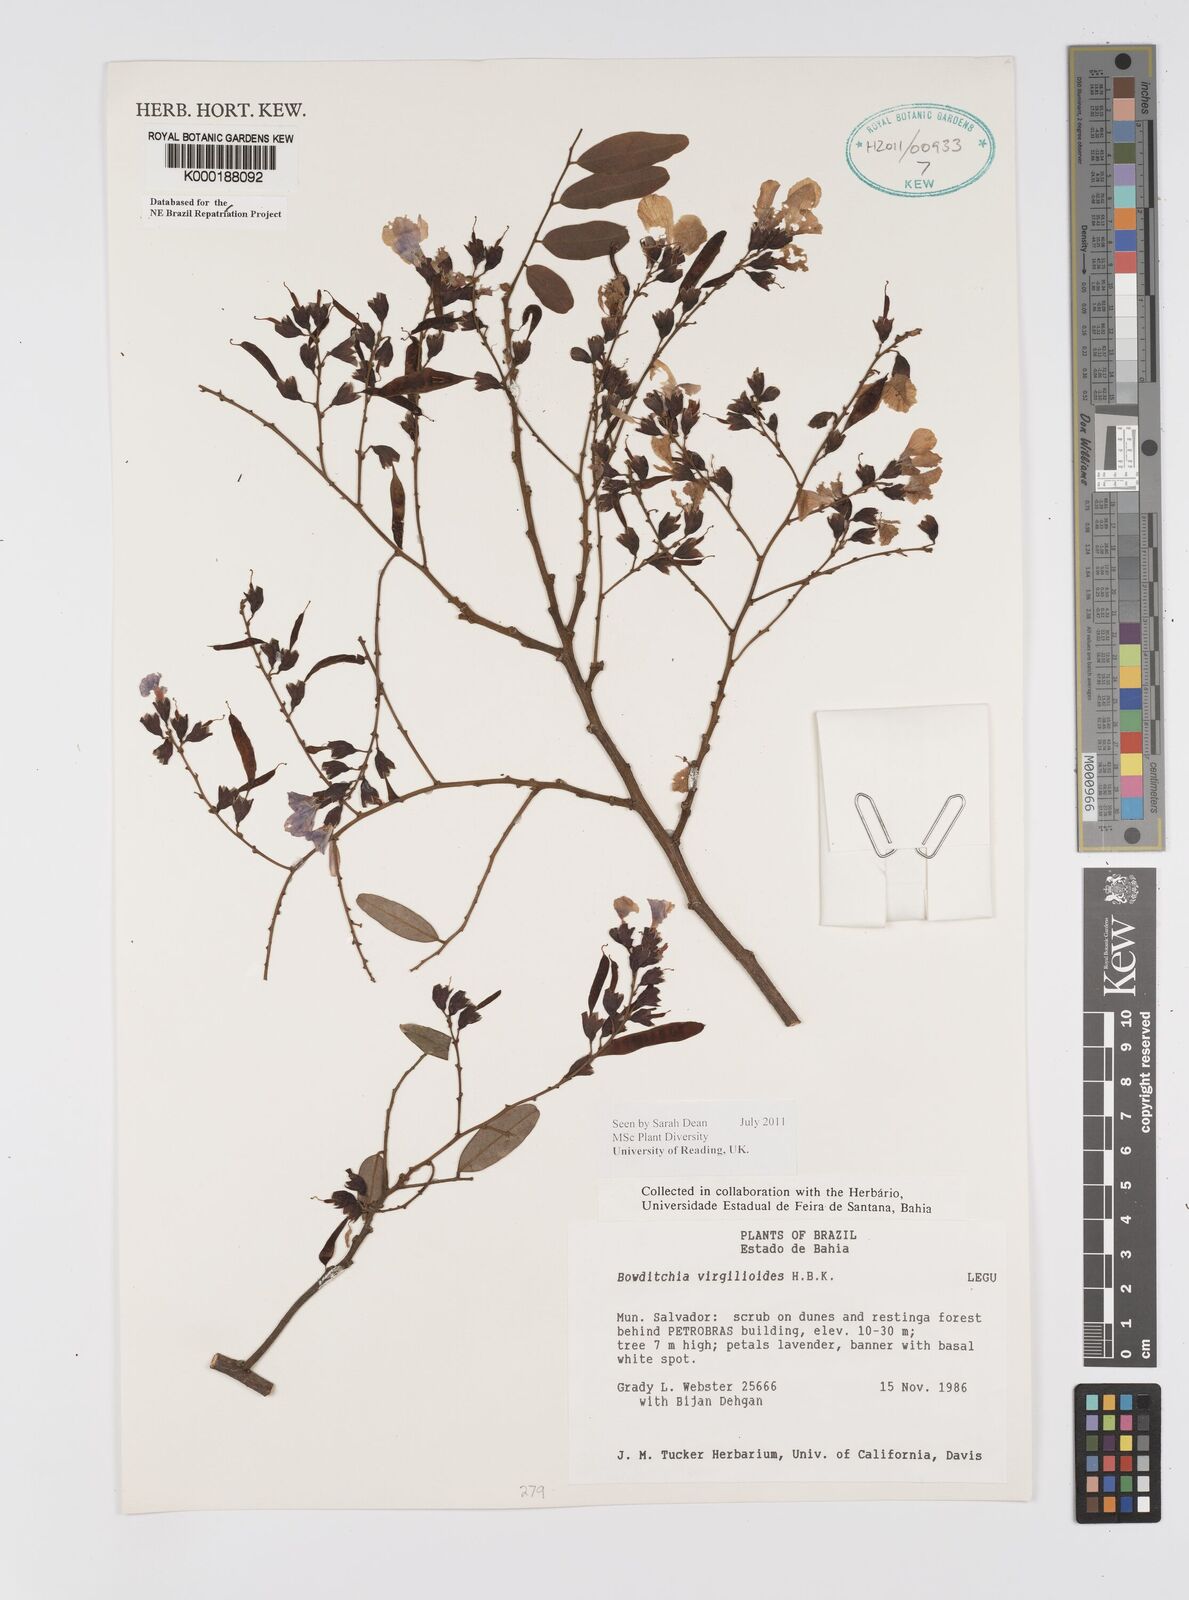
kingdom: Plantae
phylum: Tracheophyta
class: Magnoliopsida
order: Fabales
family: Fabaceae
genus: Bowdichia
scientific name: Bowdichia virgilioides
